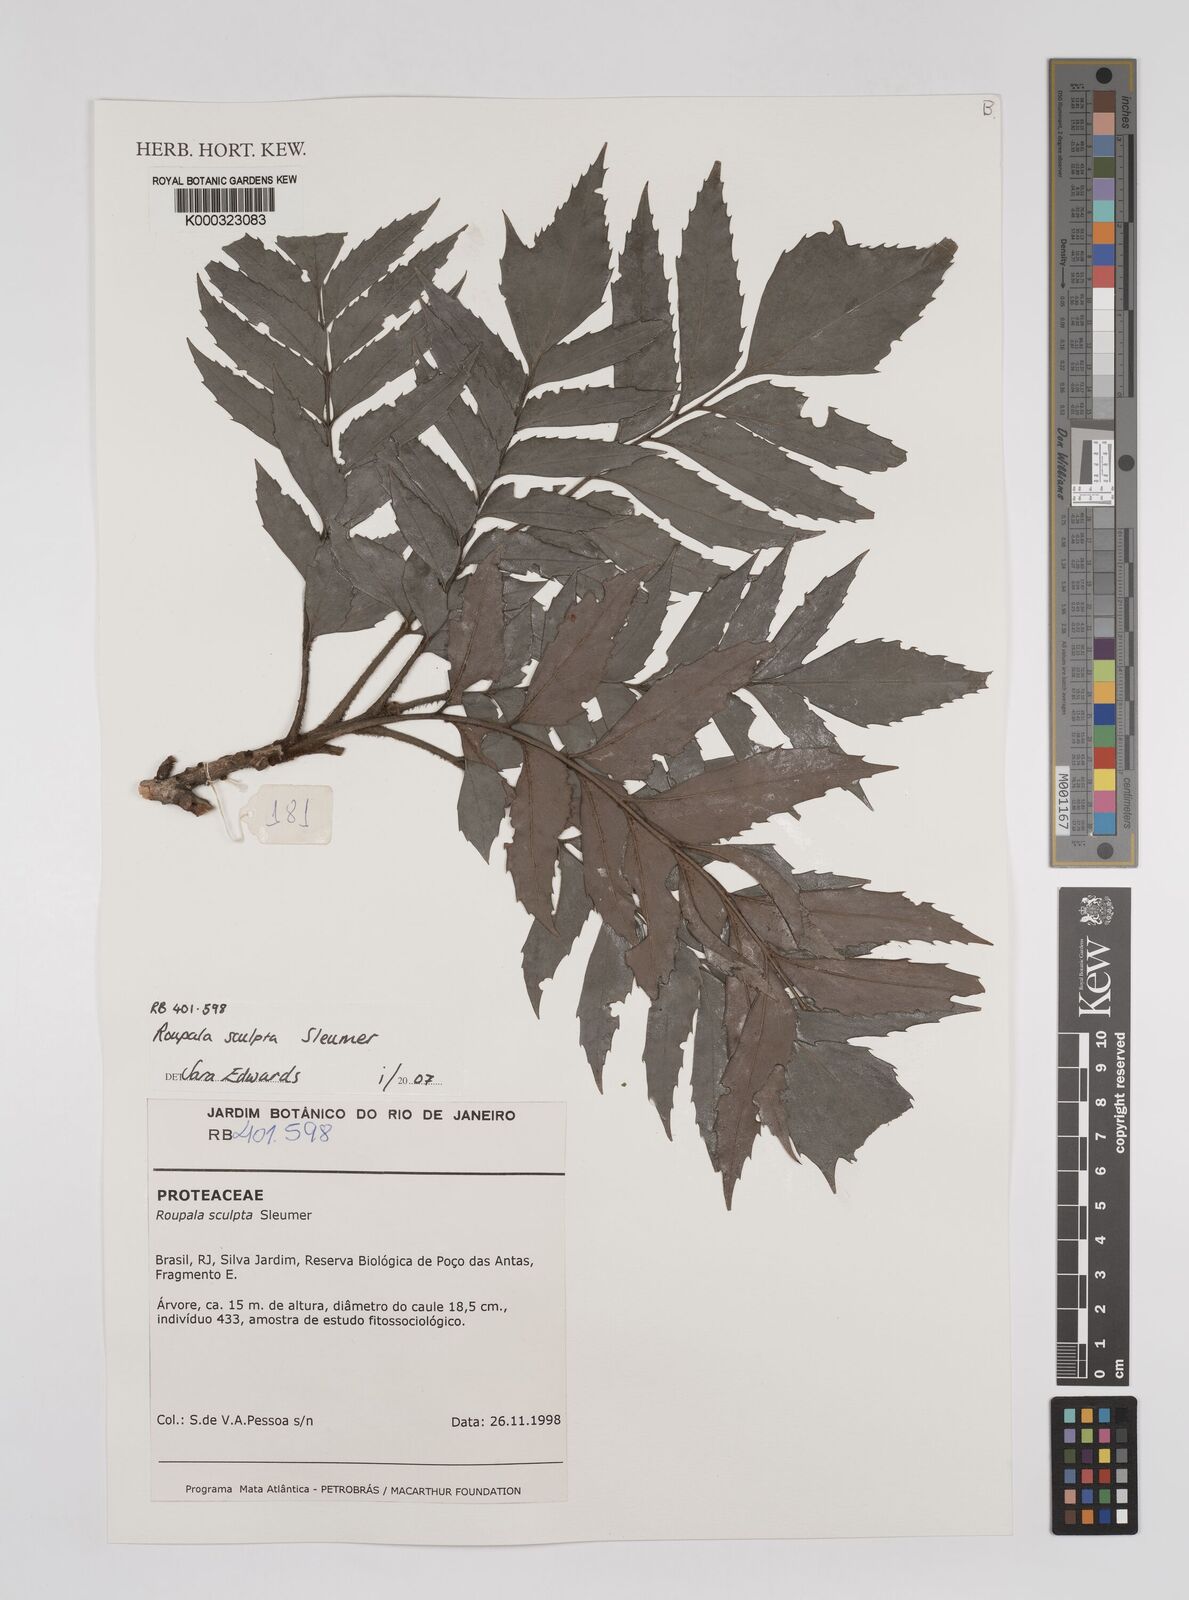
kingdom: Plantae
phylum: Tracheophyta
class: Magnoliopsida
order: Proteales
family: Proteaceae
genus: Roupala
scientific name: Roupala sculpta
